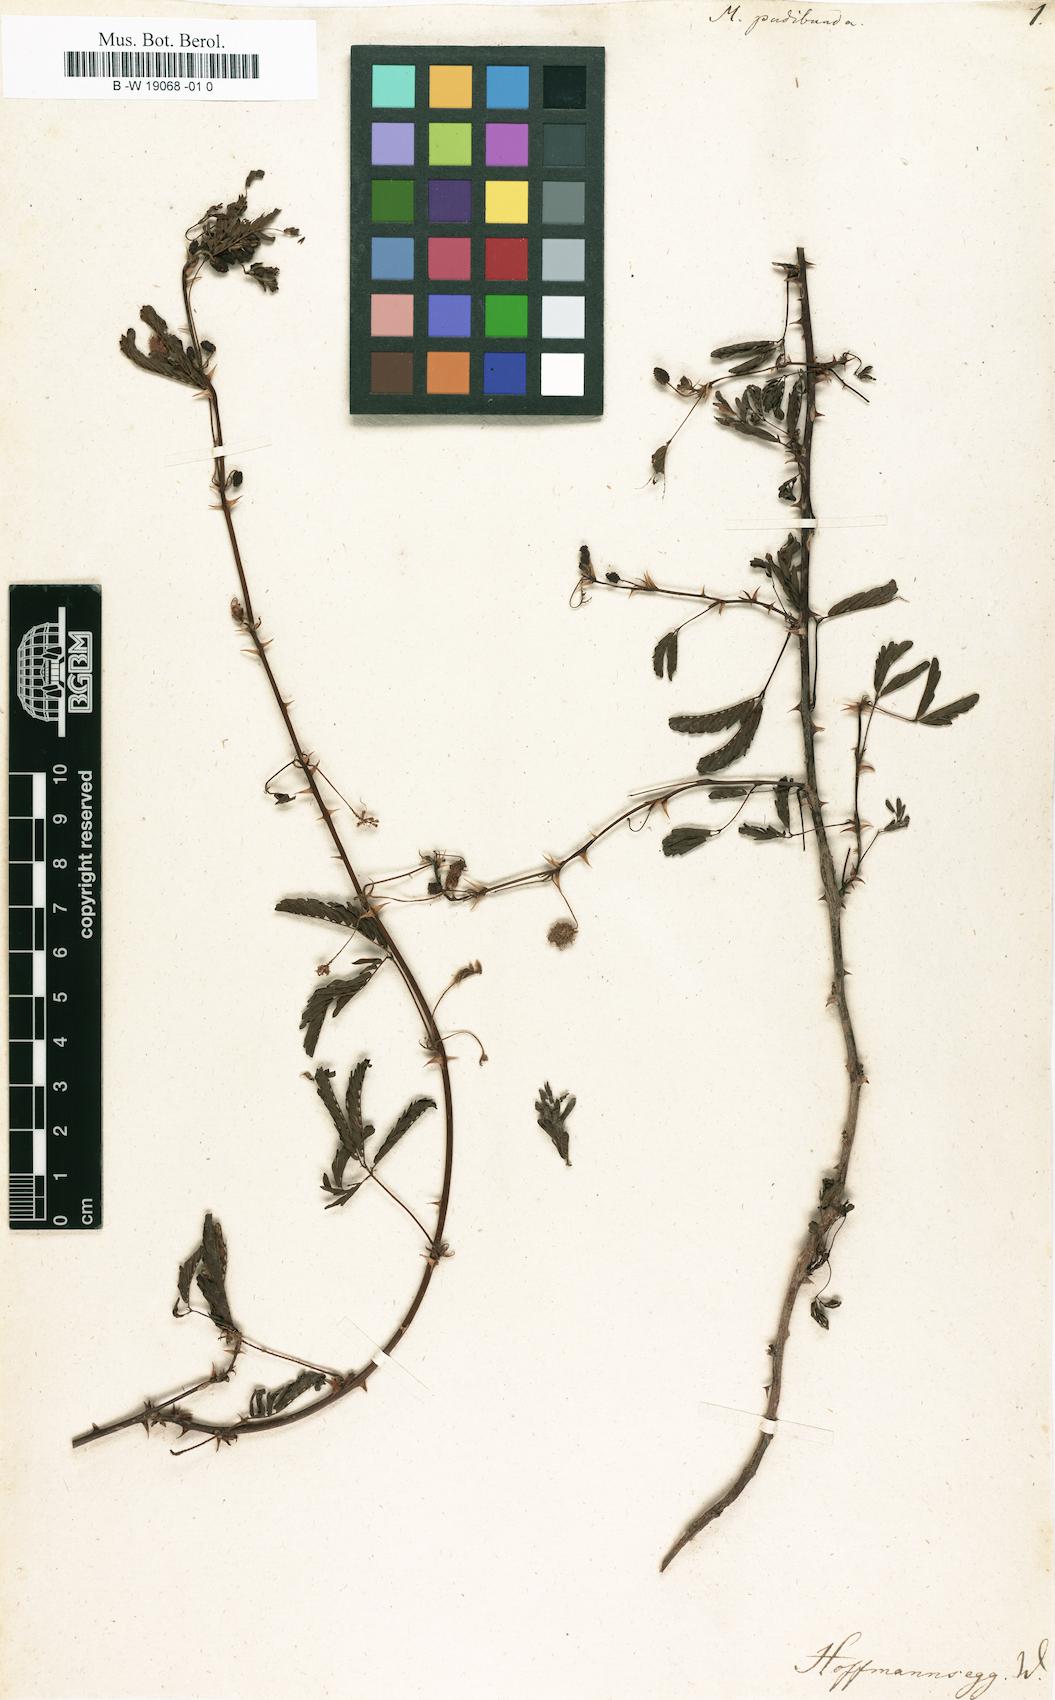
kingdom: Plantae
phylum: Tracheophyta
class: Magnoliopsida
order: Fabales
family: Fabaceae
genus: Mimosa
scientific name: Mimosa pudica
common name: Sensitive plant
